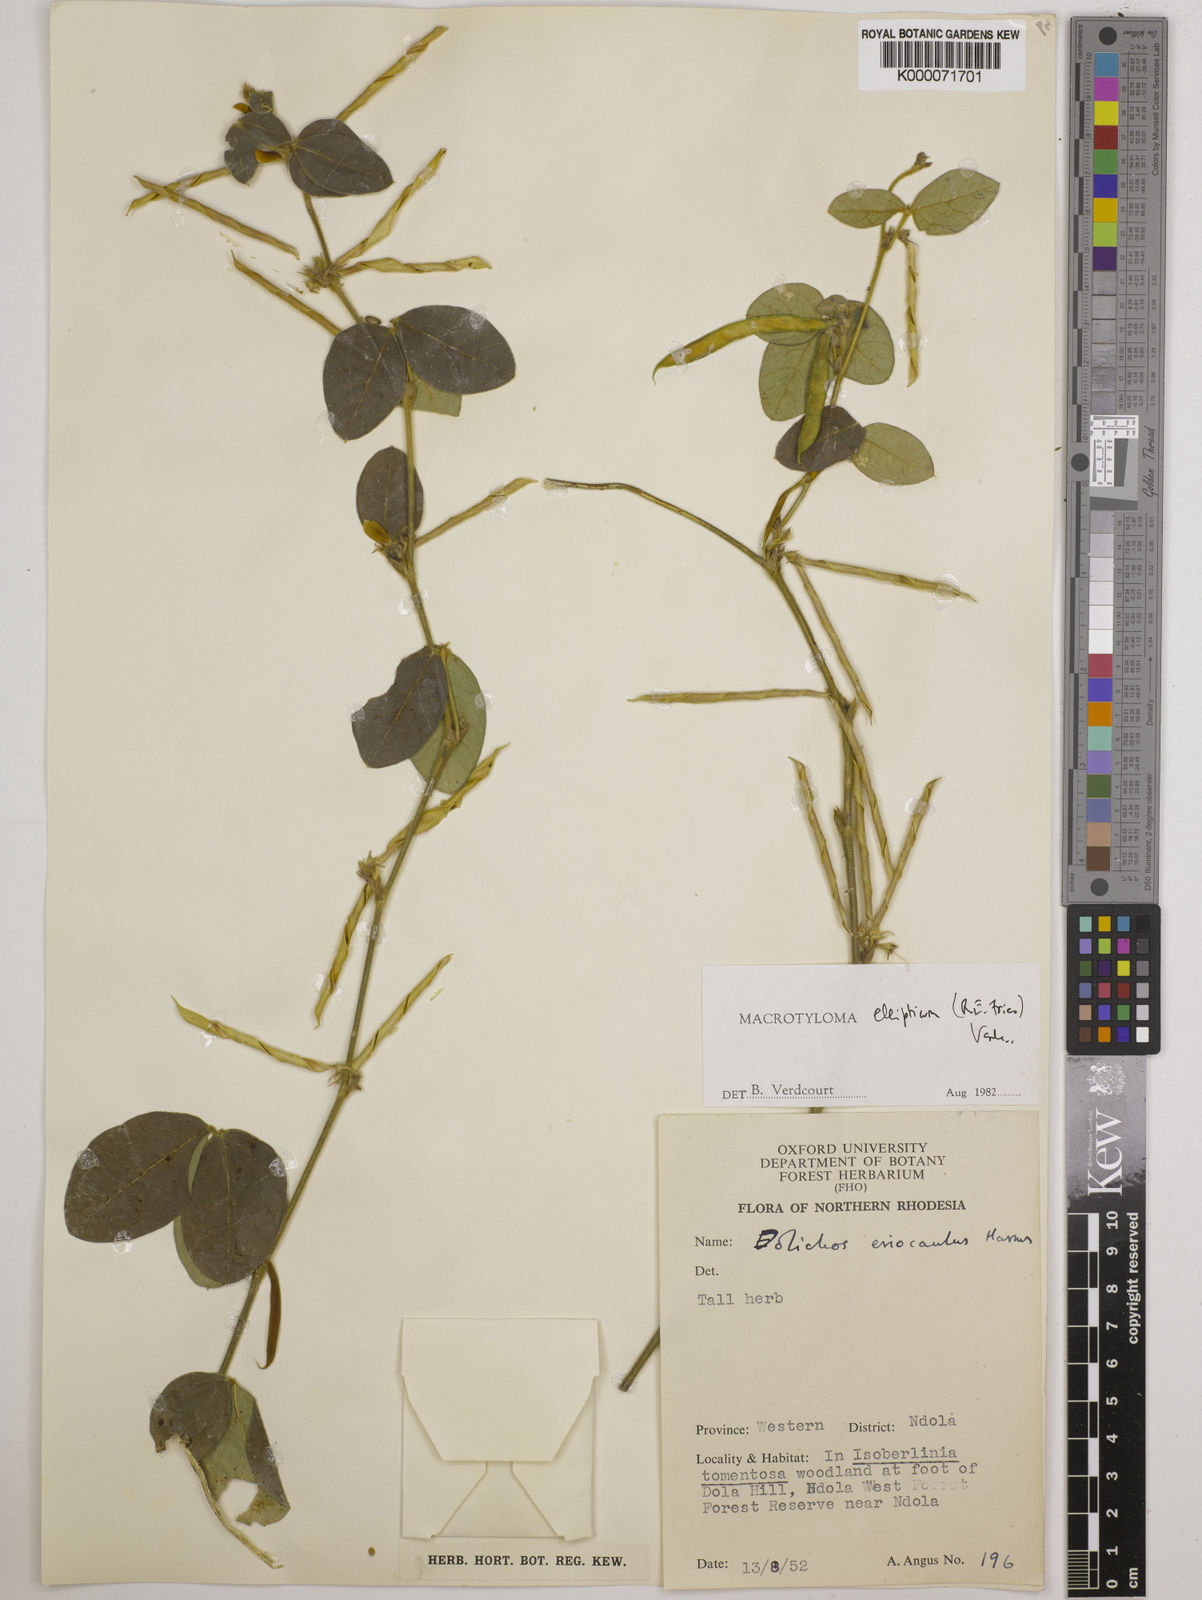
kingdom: Plantae
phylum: Tracheophyta
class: Magnoliopsida
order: Fabales
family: Fabaceae
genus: Macrotyloma
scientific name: Macrotyloma ellipticum
